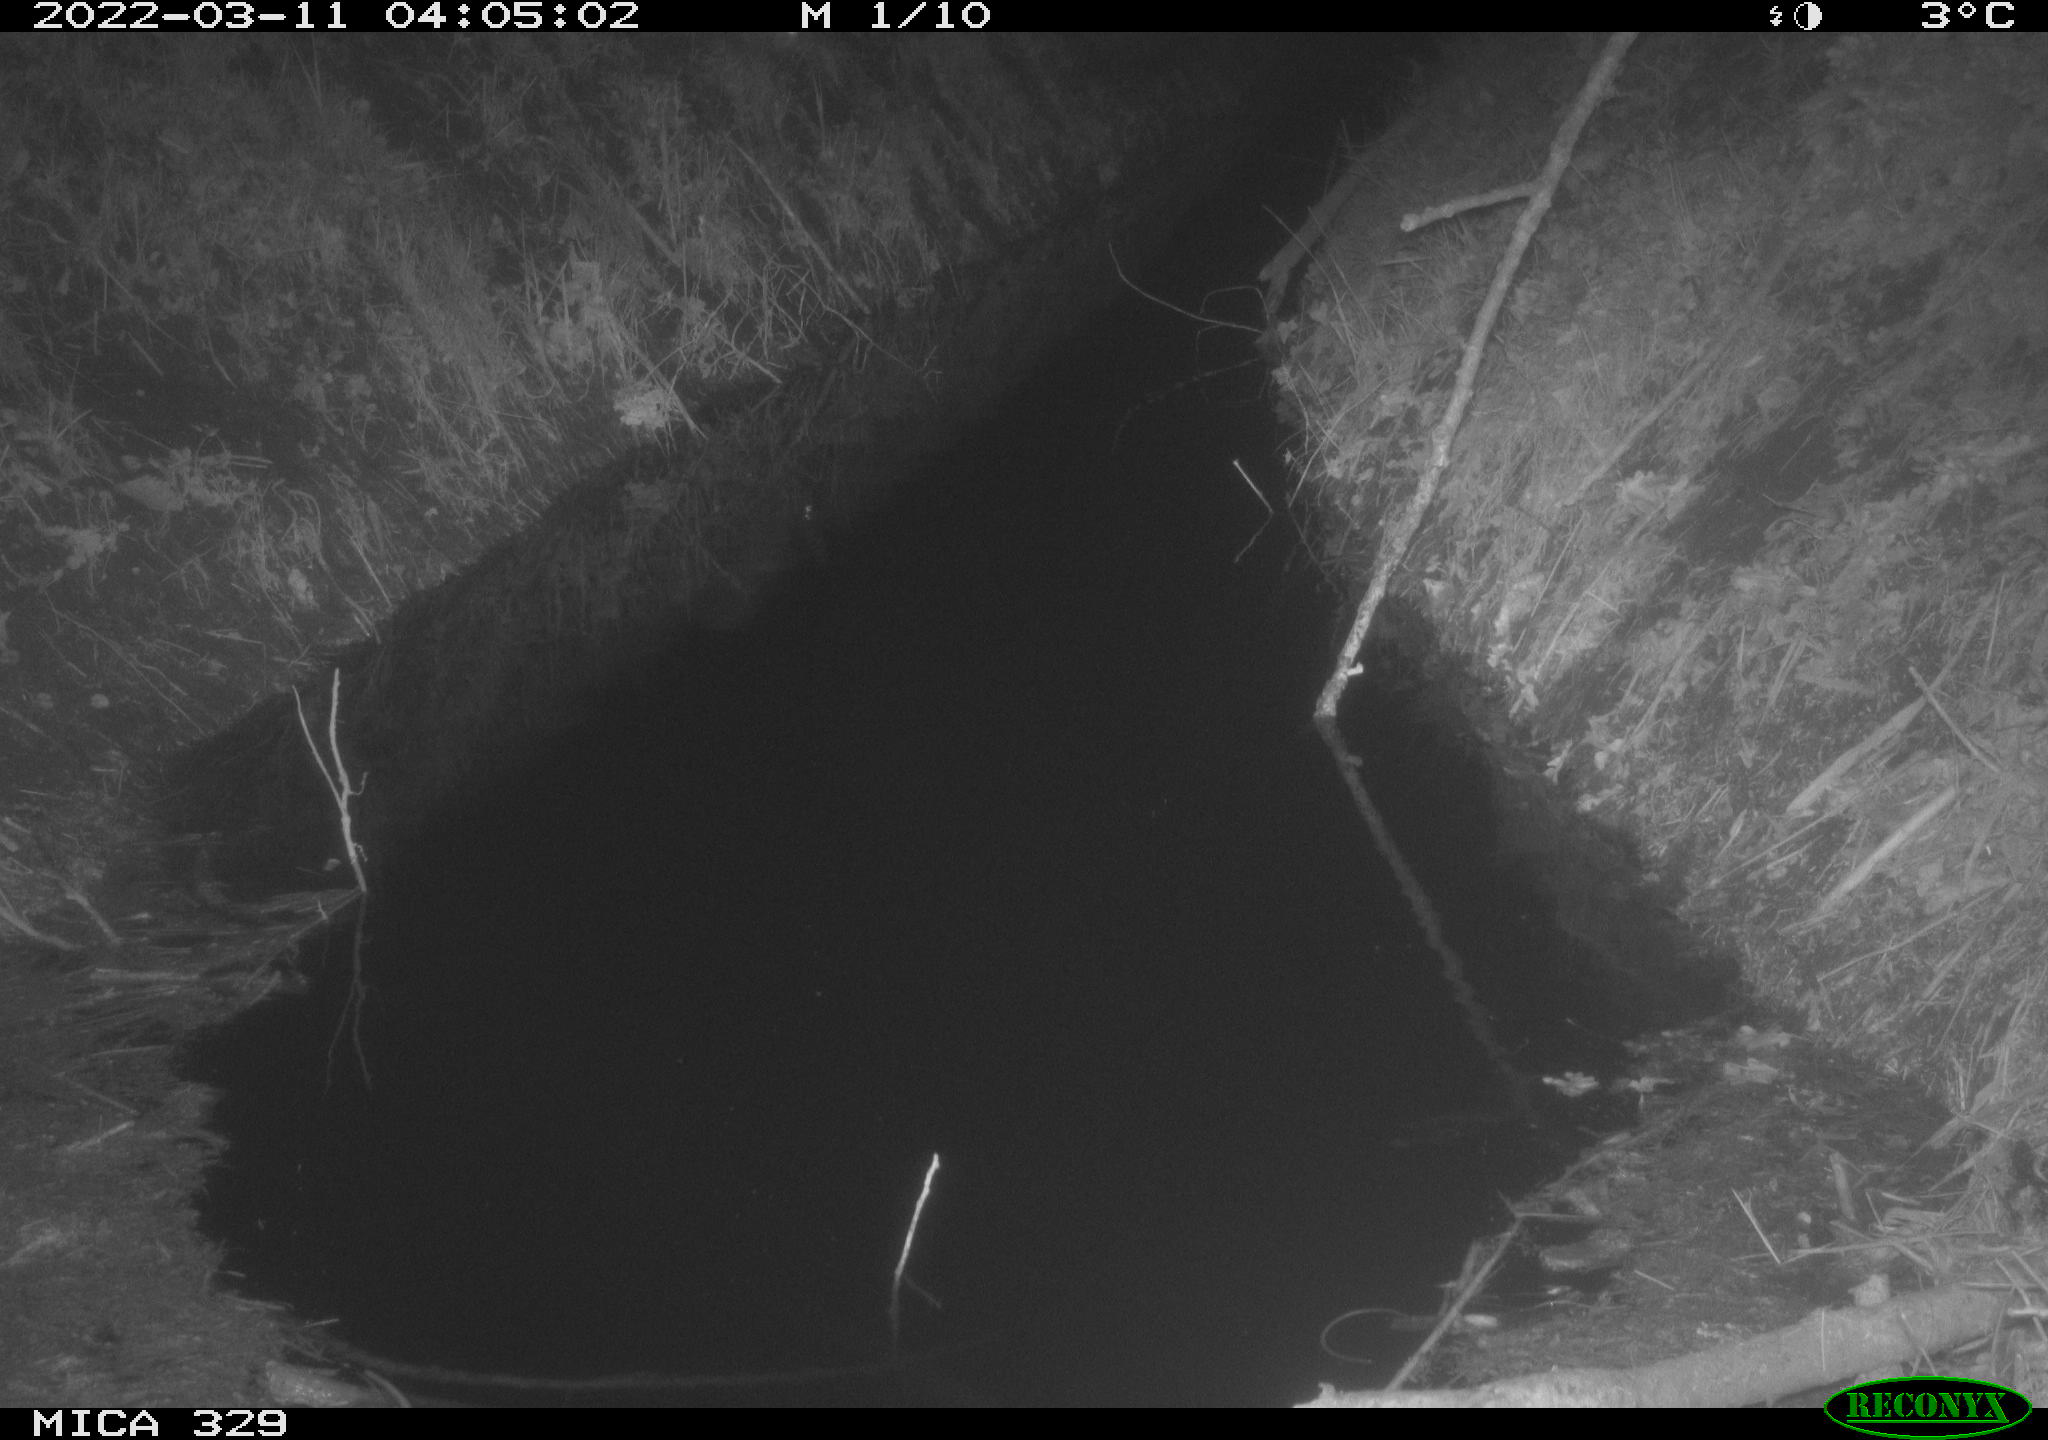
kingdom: Animalia
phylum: Chordata
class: Mammalia
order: Rodentia
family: Muridae
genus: Rattus
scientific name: Rattus norvegicus
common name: Brown rat
